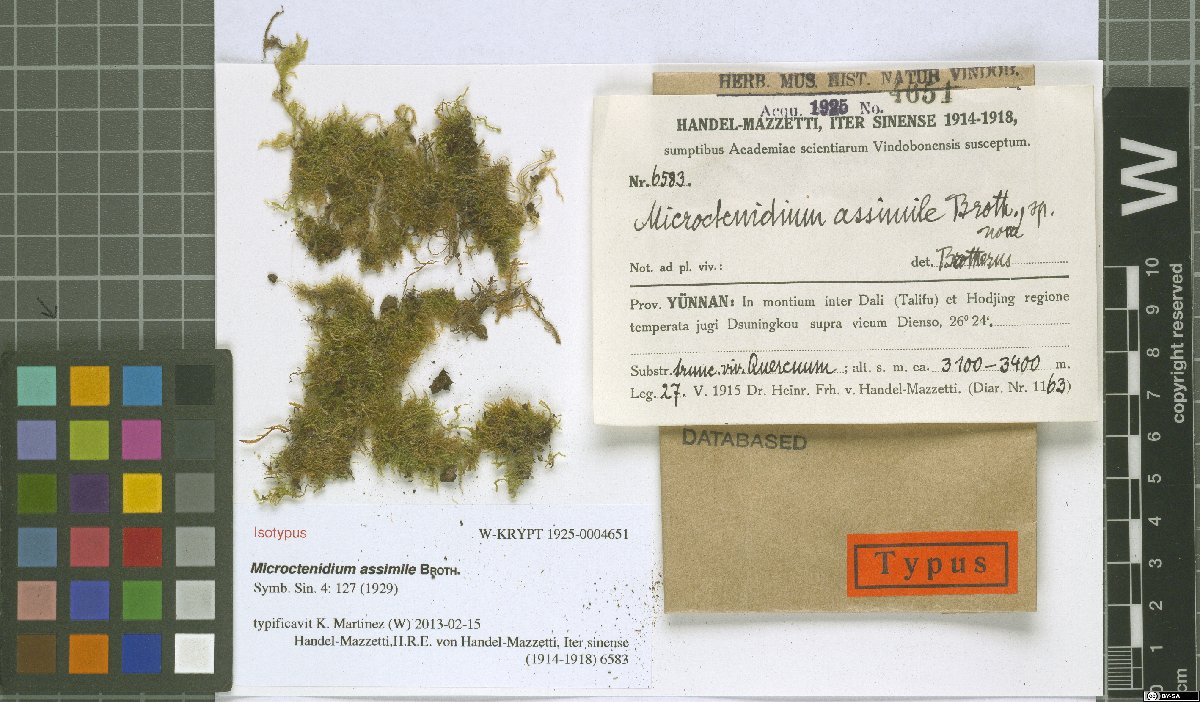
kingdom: Plantae
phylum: Bryophyta
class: Bryopsida
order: Hypnales
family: Hypnaceae
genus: Microctenidium
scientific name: Microctenidium assimile
